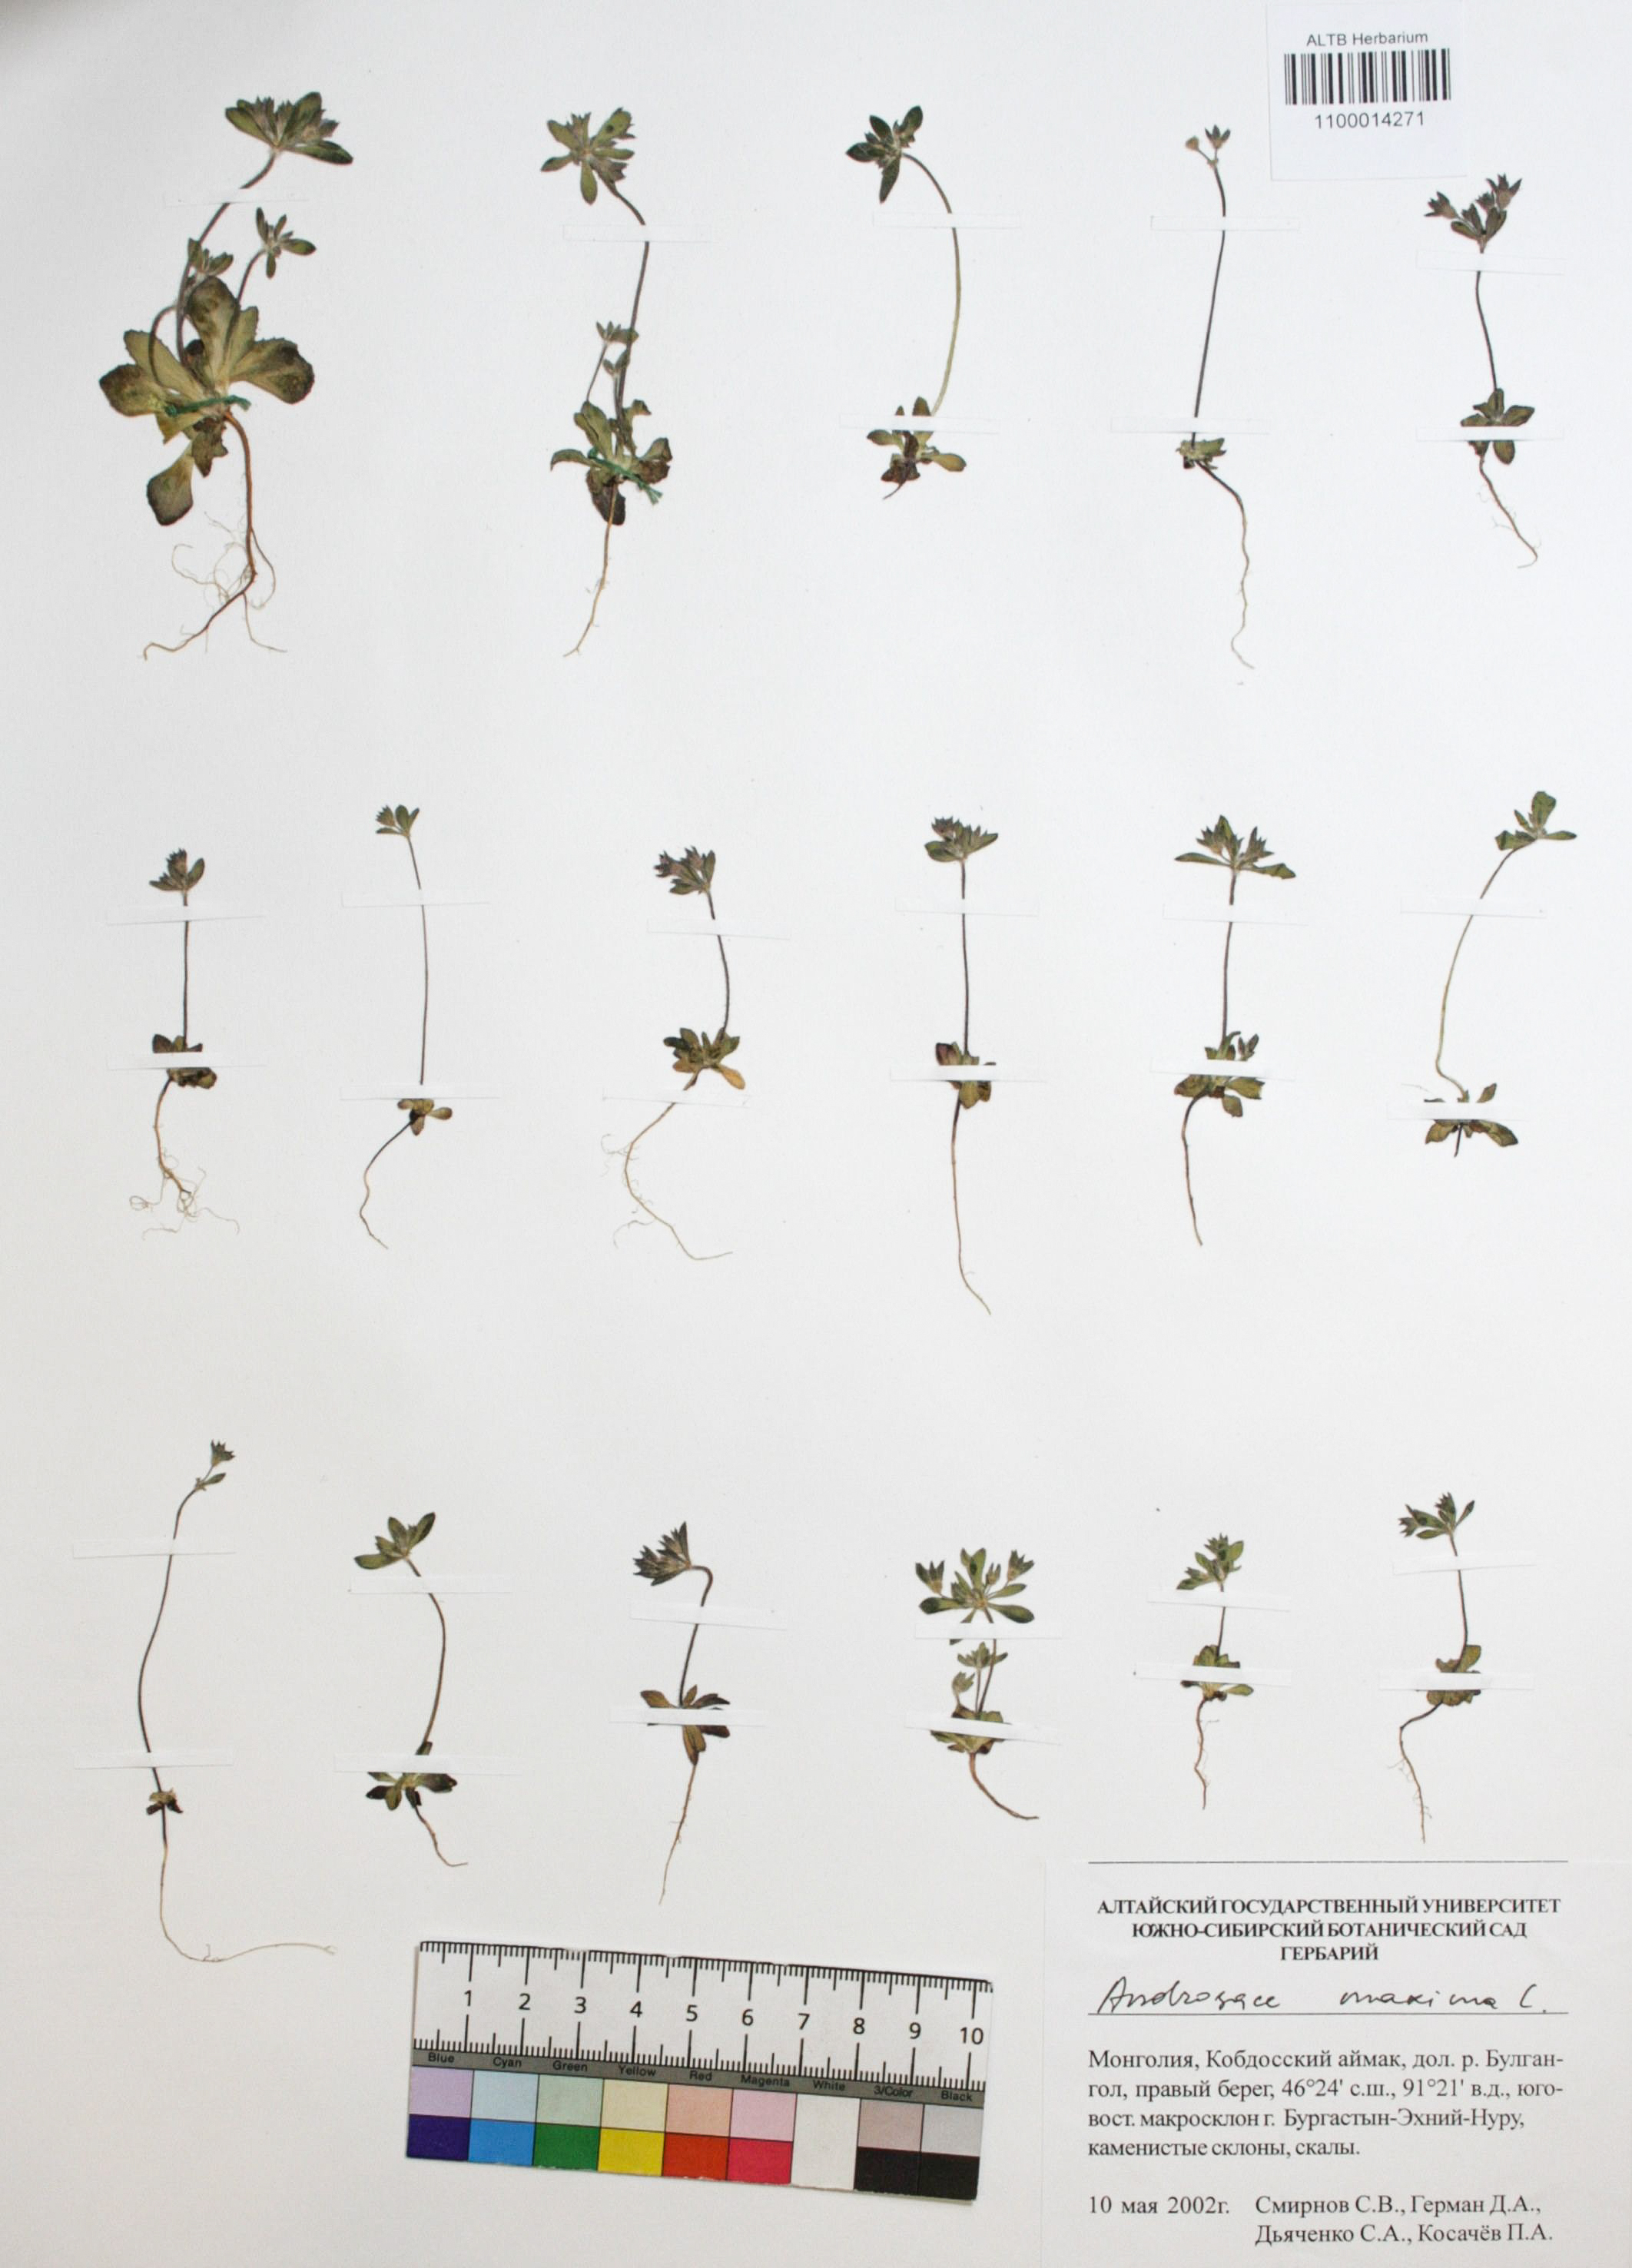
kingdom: Plantae
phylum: Tracheophyta
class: Magnoliopsida
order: Ericales
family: Primulaceae
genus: Androsace
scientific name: Androsace maxima
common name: Annual androsace
